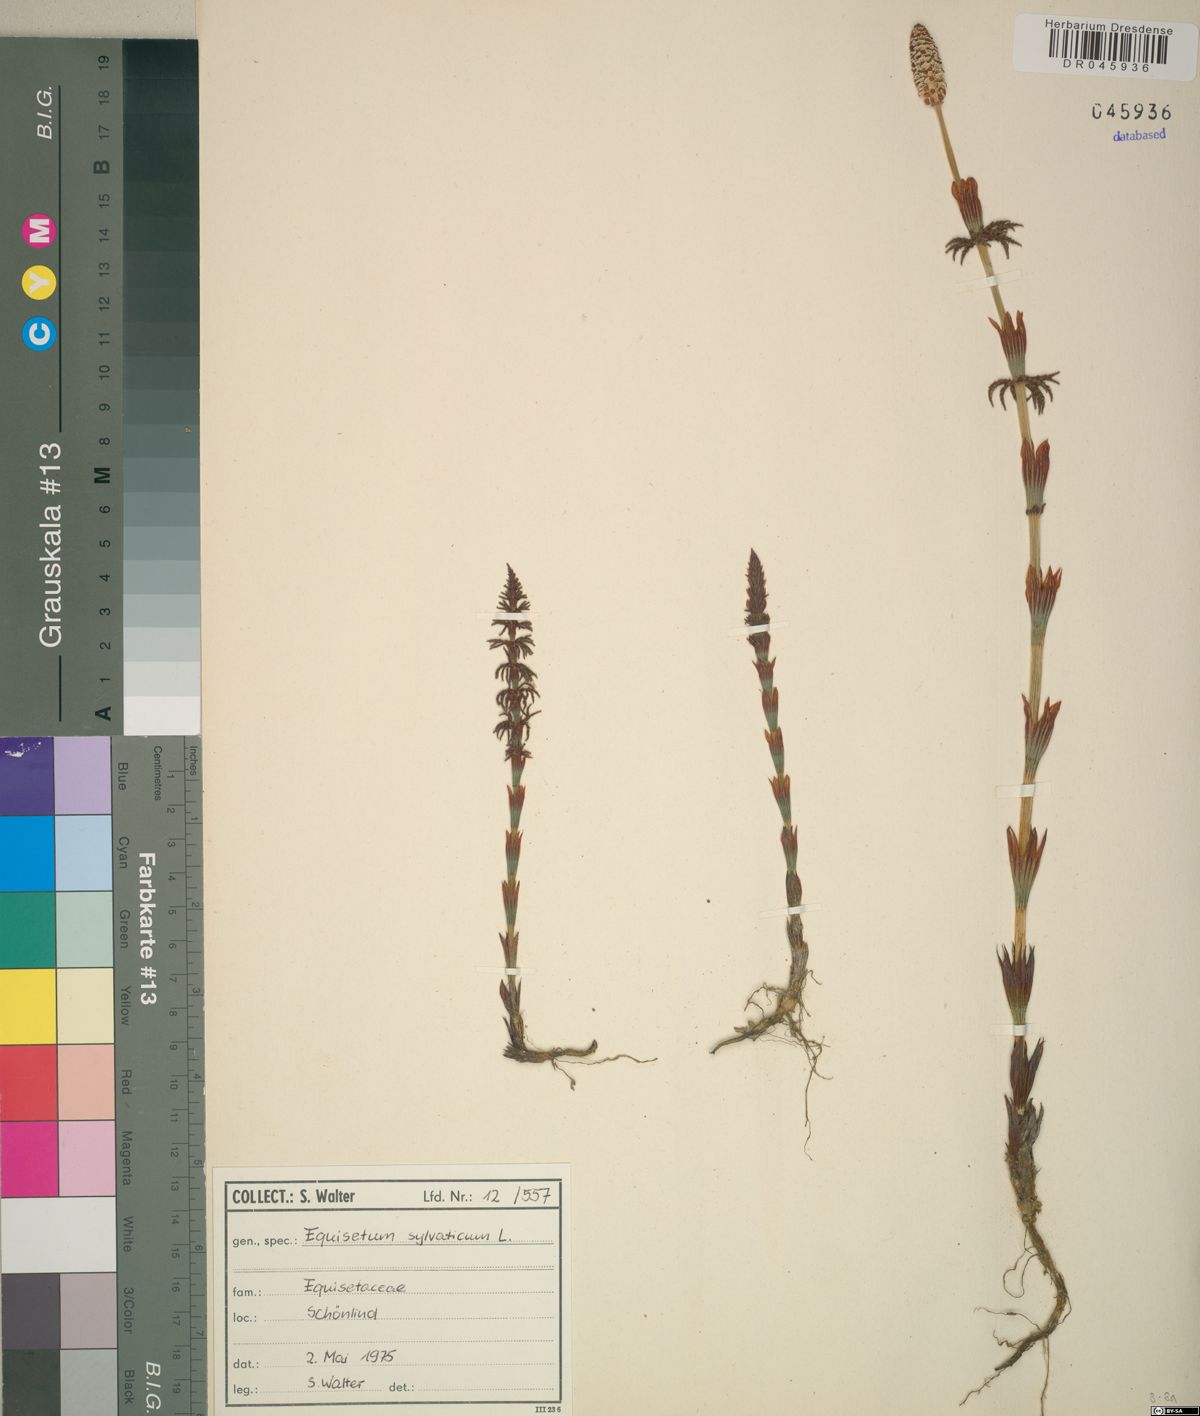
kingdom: Plantae
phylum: Tracheophyta
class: Polypodiopsida
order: Equisetales
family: Equisetaceae
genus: Equisetum
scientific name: Equisetum sylvaticum
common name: Wood horsetail
